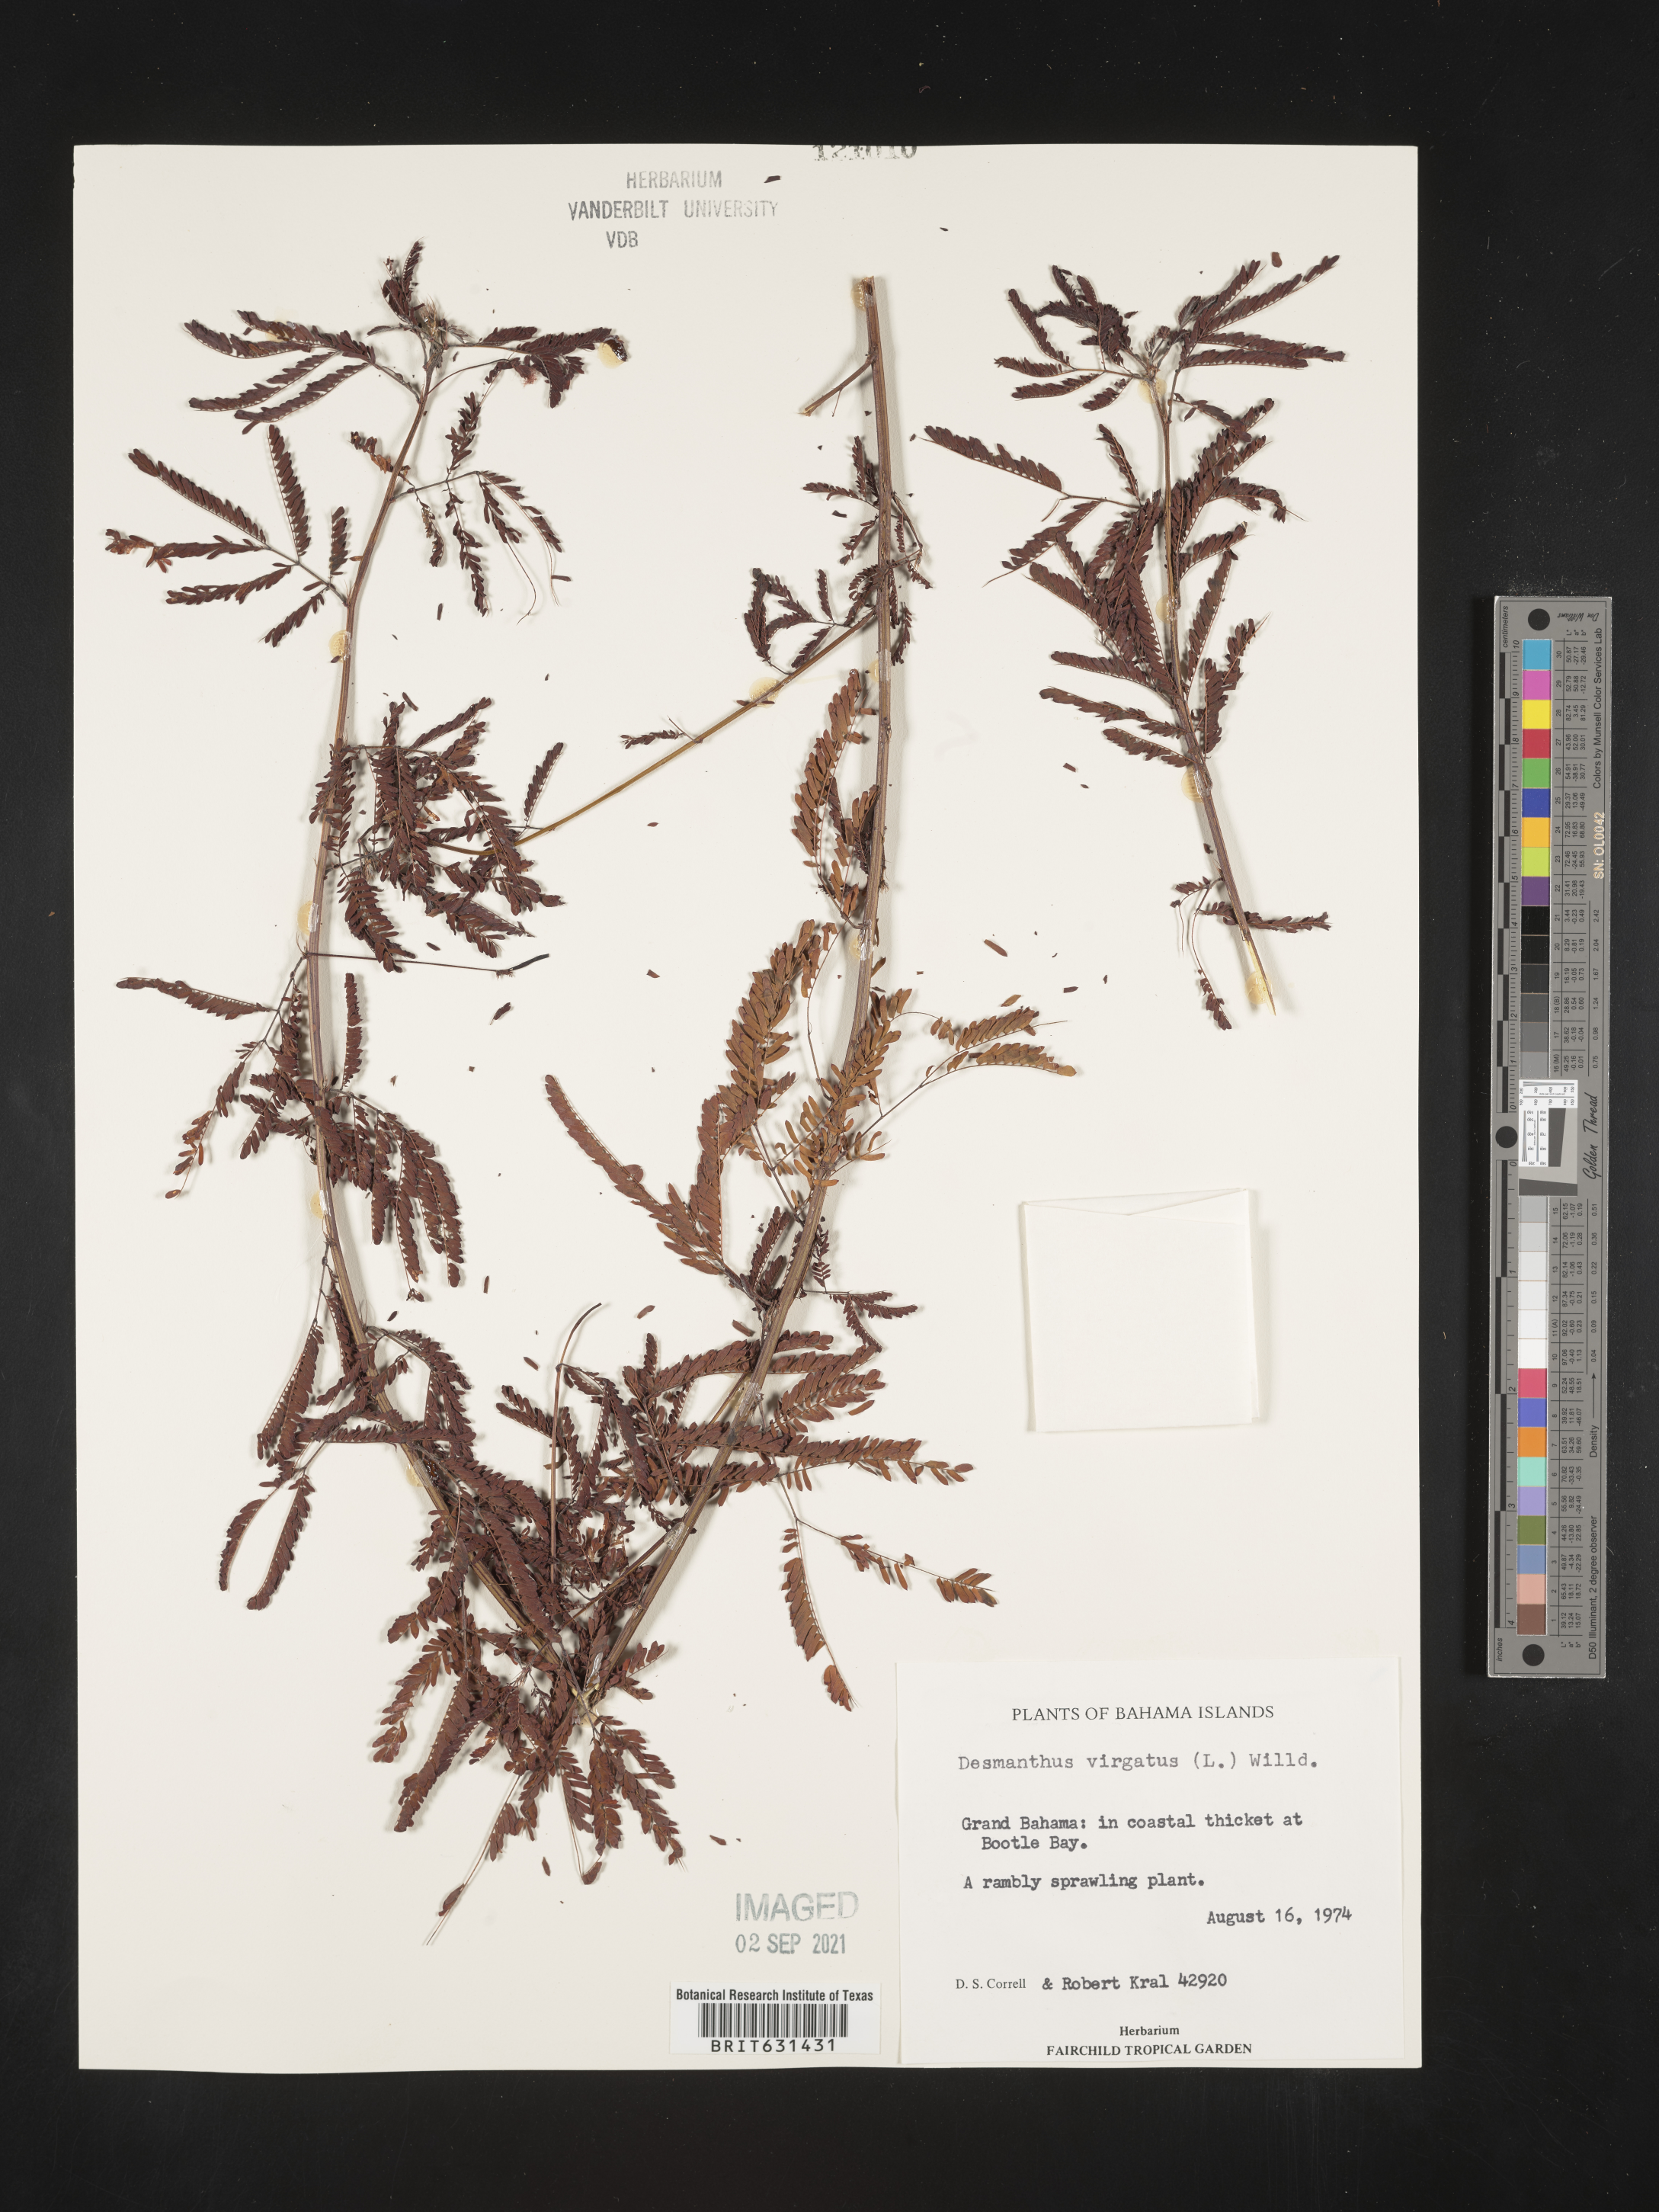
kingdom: Plantae
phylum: Tracheophyta
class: Magnoliopsida
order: Fabales
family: Fabaceae
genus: Desmanthus
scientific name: Desmanthus virgatus
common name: Wild tantan
